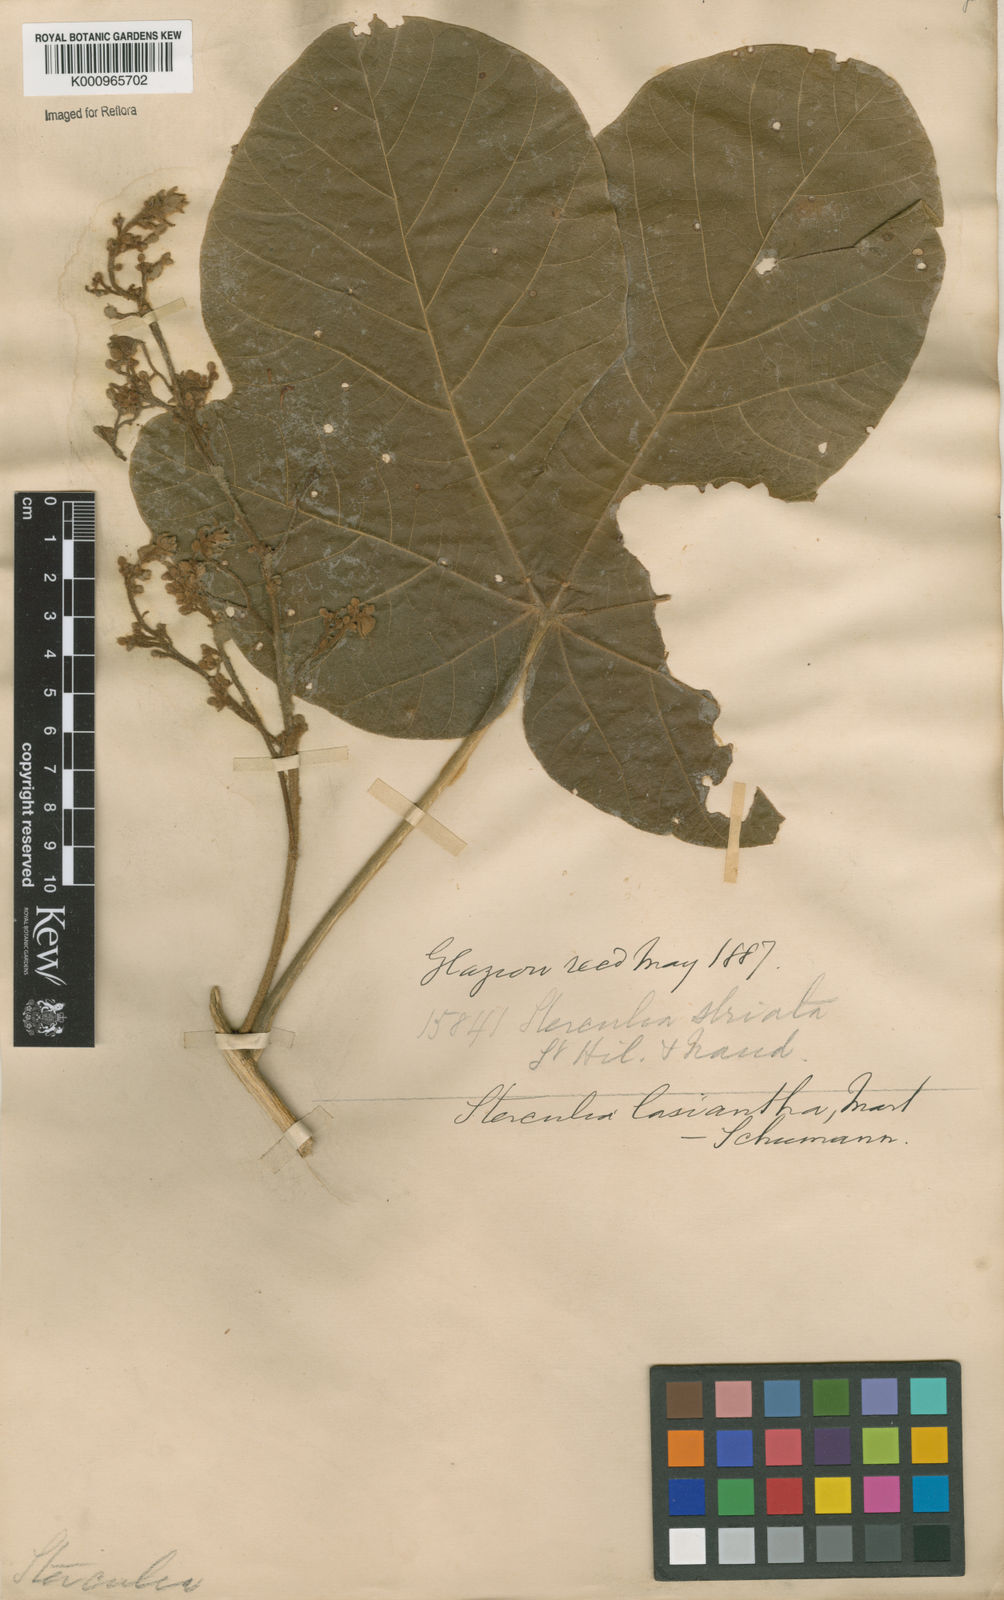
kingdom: Plantae
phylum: Tracheophyta
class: Magnoliopsida
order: Malvales
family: Malvaceae
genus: Sterculia
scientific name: Sterculia striata
